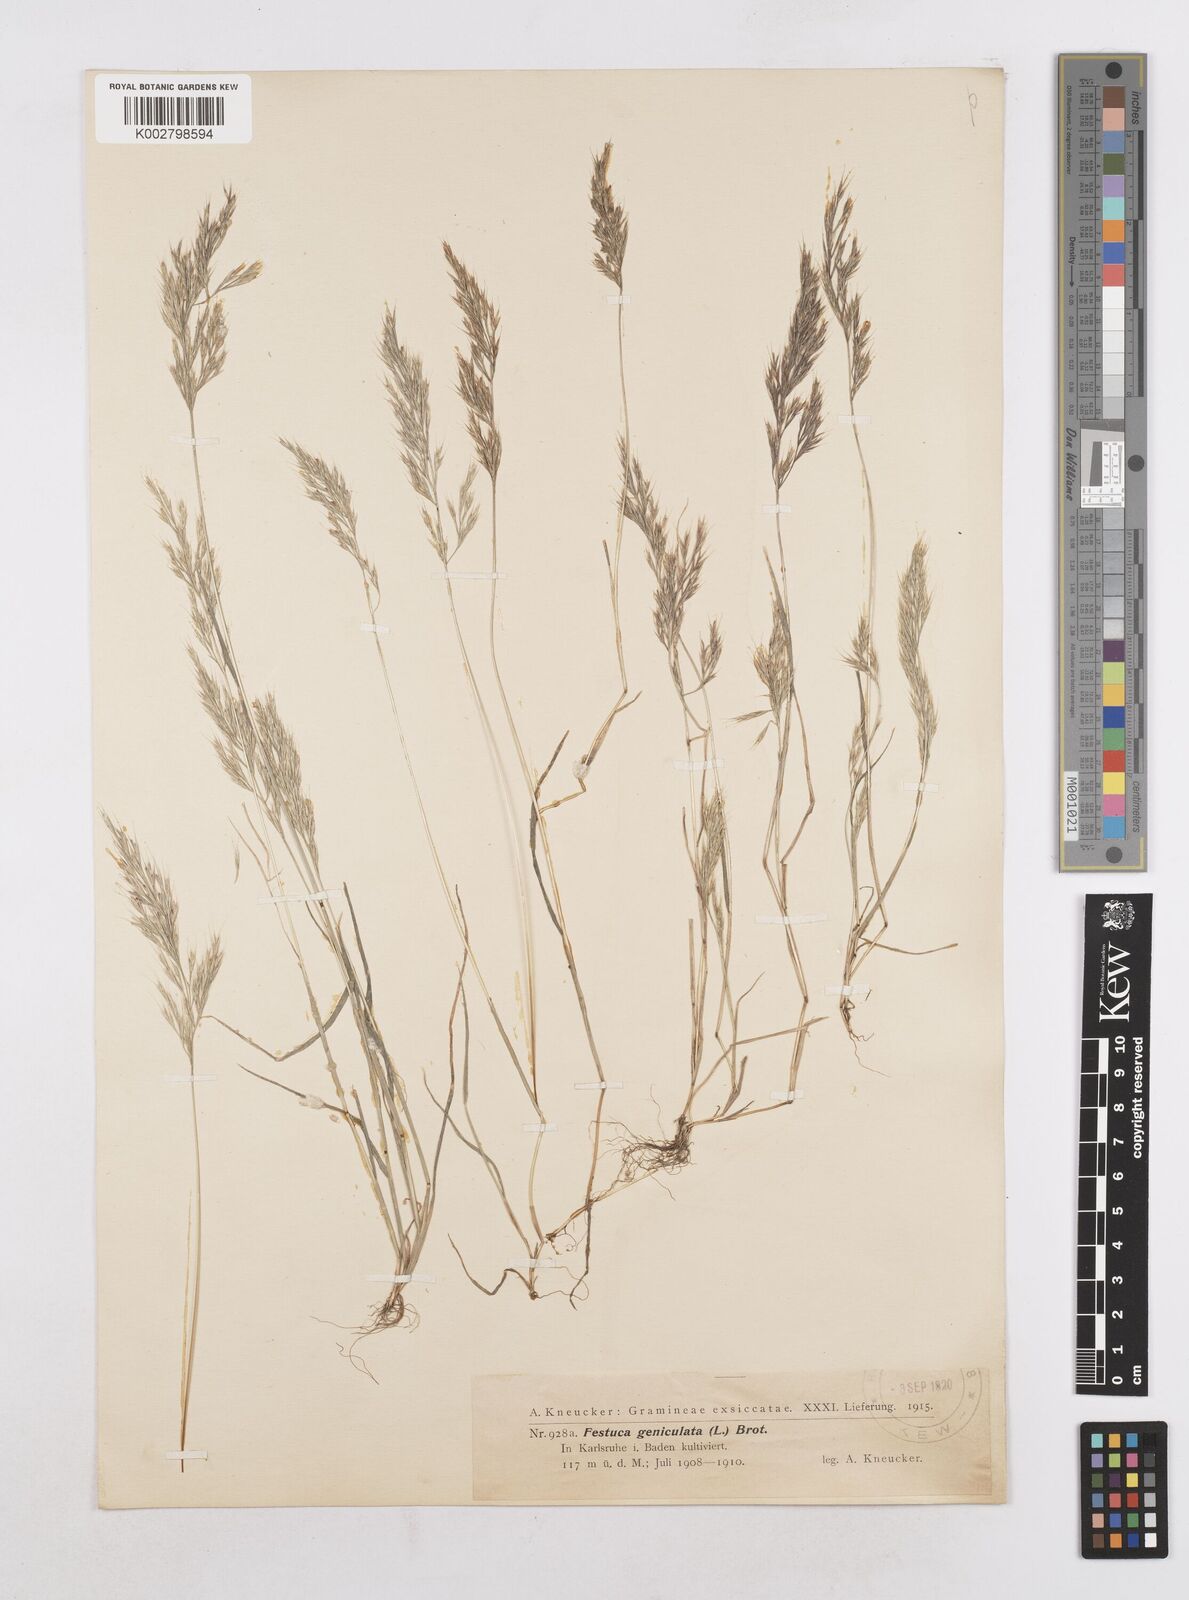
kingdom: Plantae
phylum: Tracheophyta
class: Liliopsida
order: Poales
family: Poaceae
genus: Festuca
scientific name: Festuca geniculata
